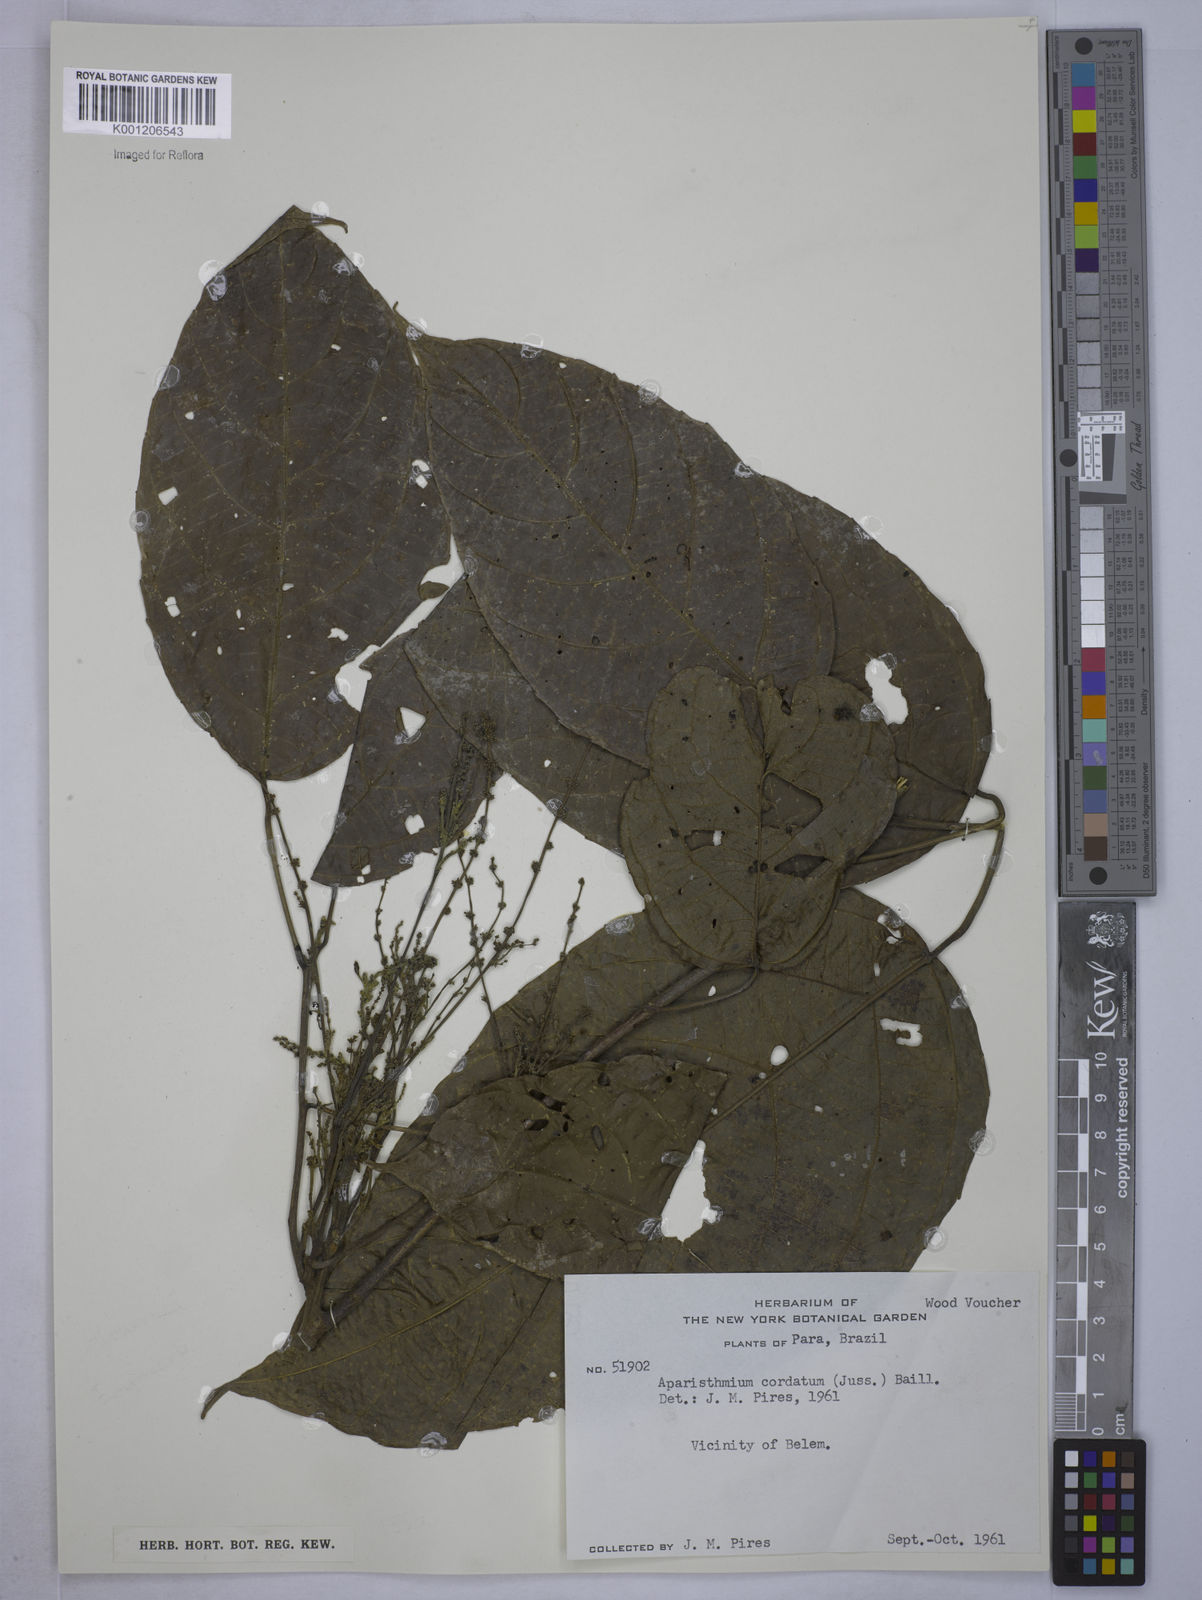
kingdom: Plantae
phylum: Tracheophyta
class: Magnoliopsida
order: Malpighiales
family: Euphorbiaceae
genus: Aparisthmium
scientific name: Aparisthmium cordatum
